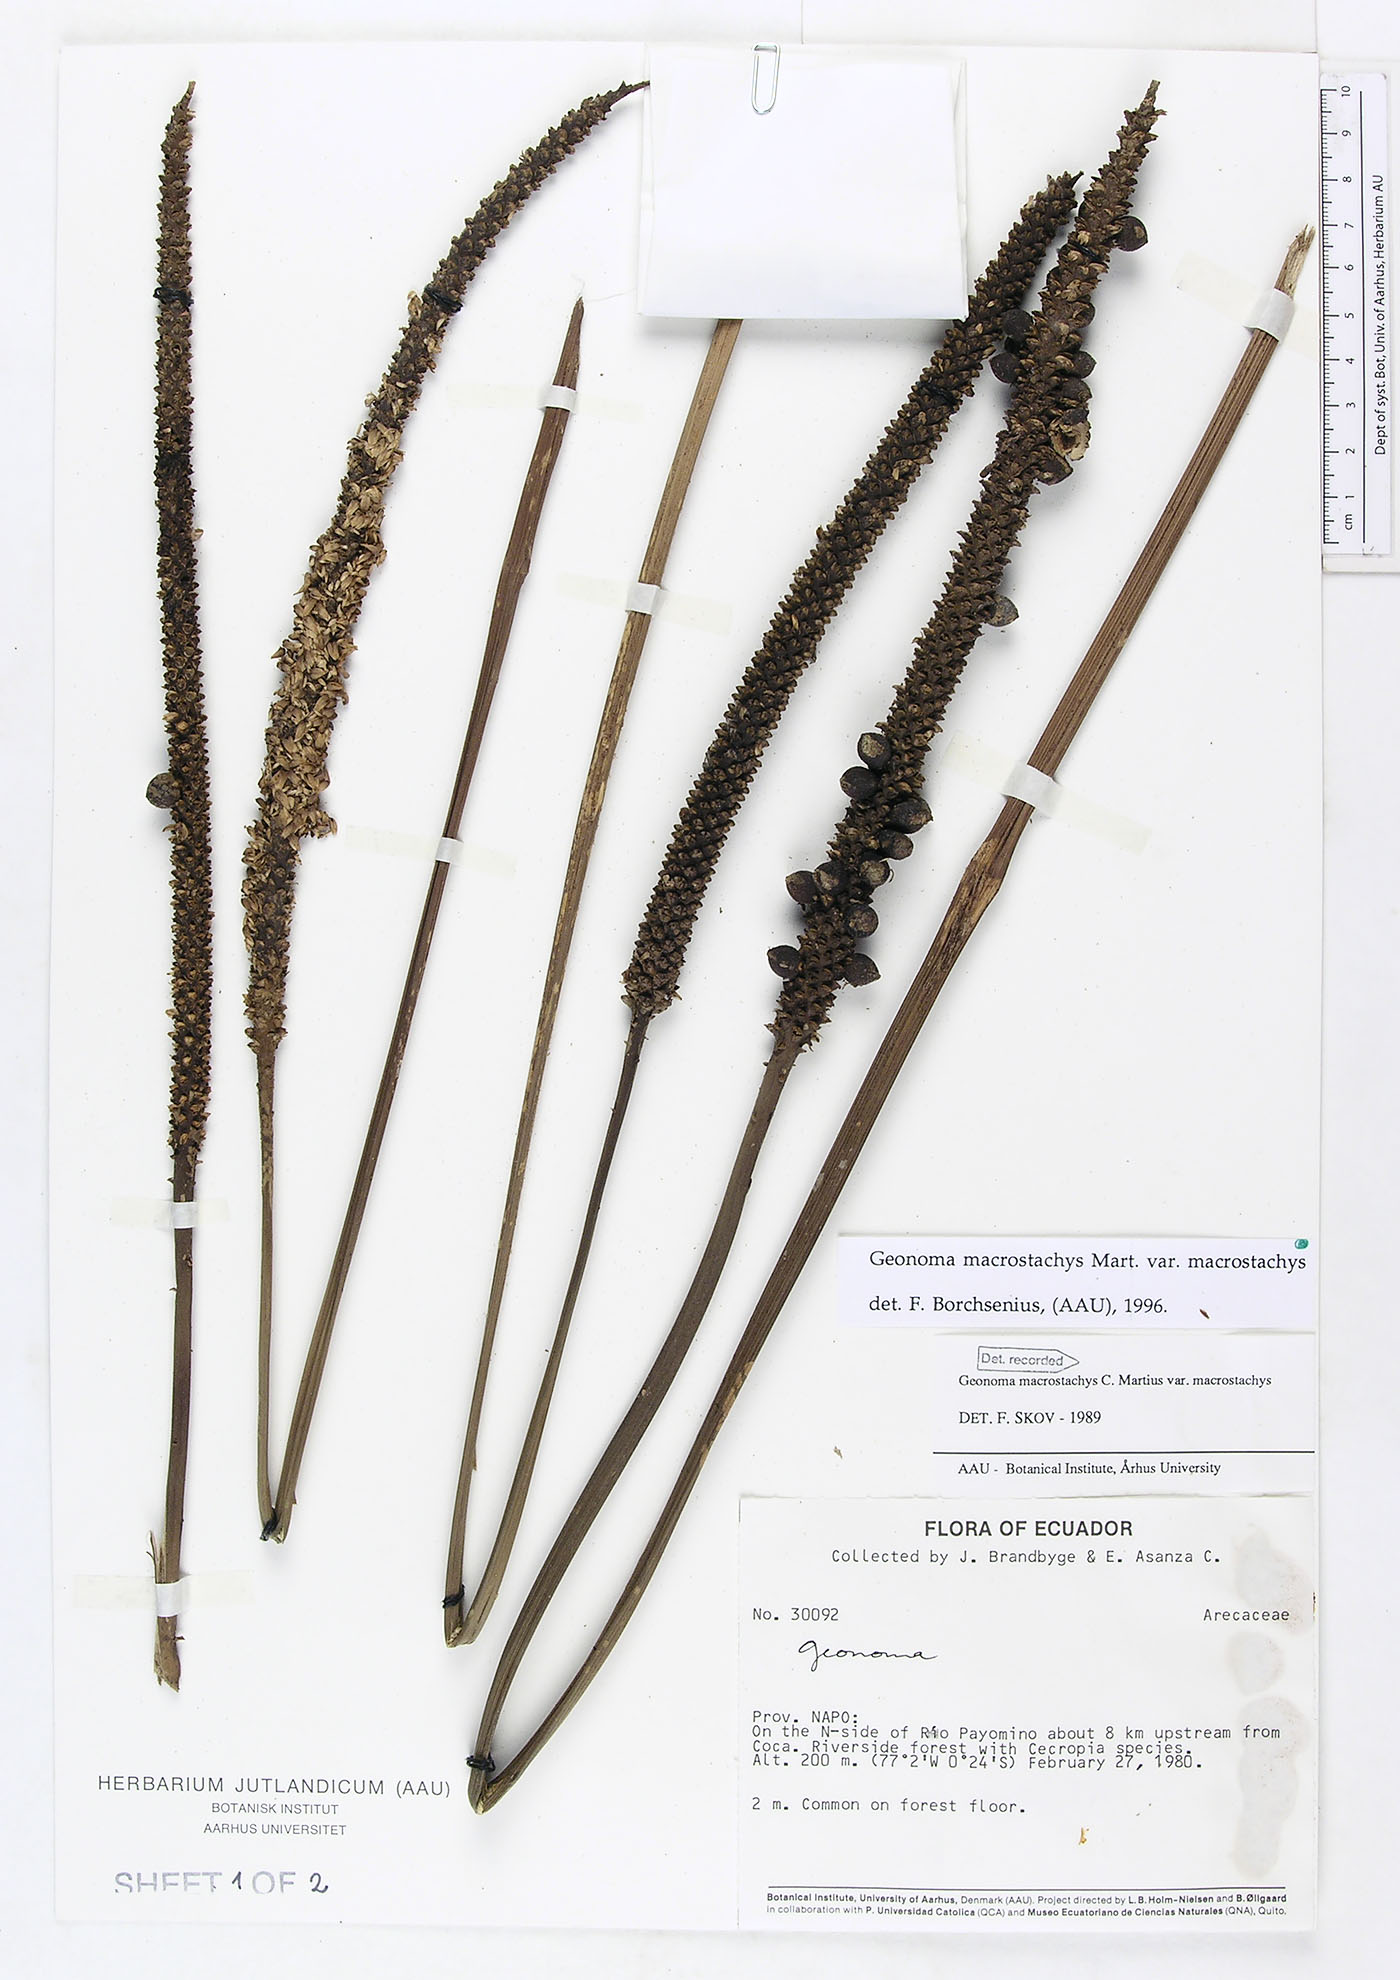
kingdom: Plantae
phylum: Tracheophyta
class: Liliopsida
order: Arecales
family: Arecaceae
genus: Geonoma
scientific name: Geonoma macrostachys
